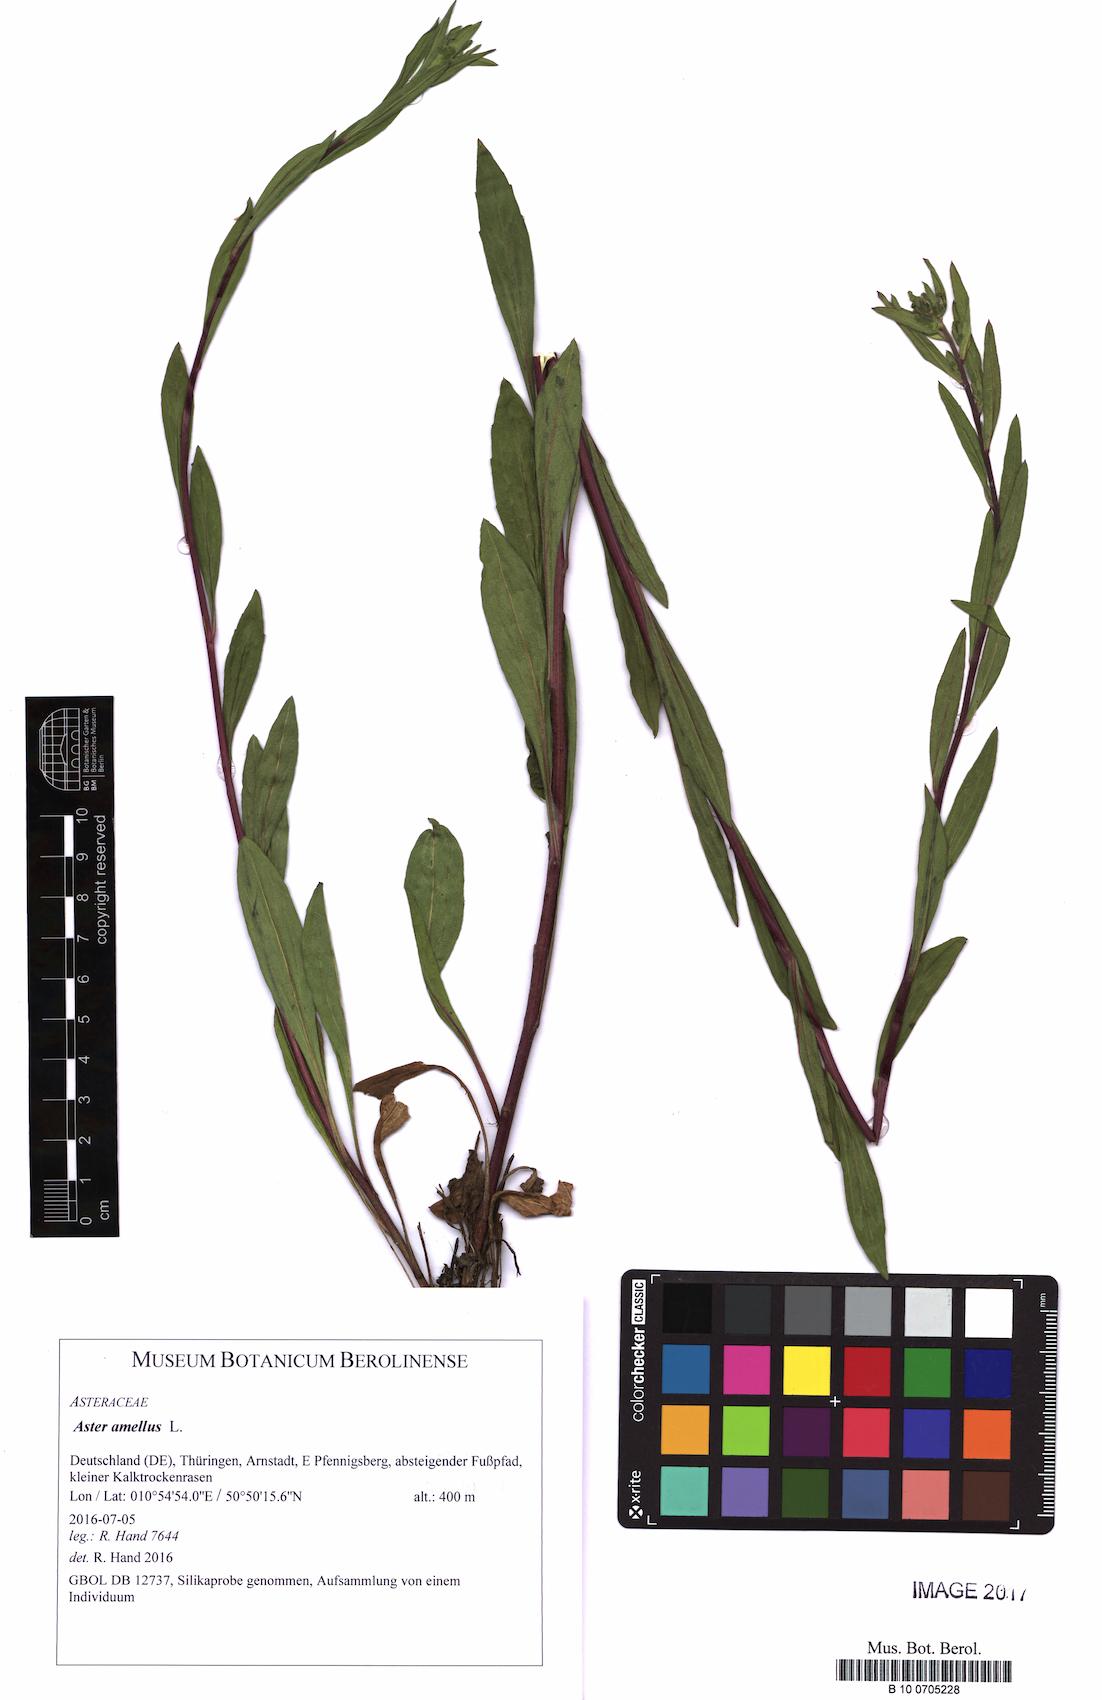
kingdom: Plantae
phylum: Tracheophyta
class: Magnoliopsida
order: Asterales
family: Asteraceae
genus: Aster
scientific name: Aster amellus
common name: European michaelmas daisy
